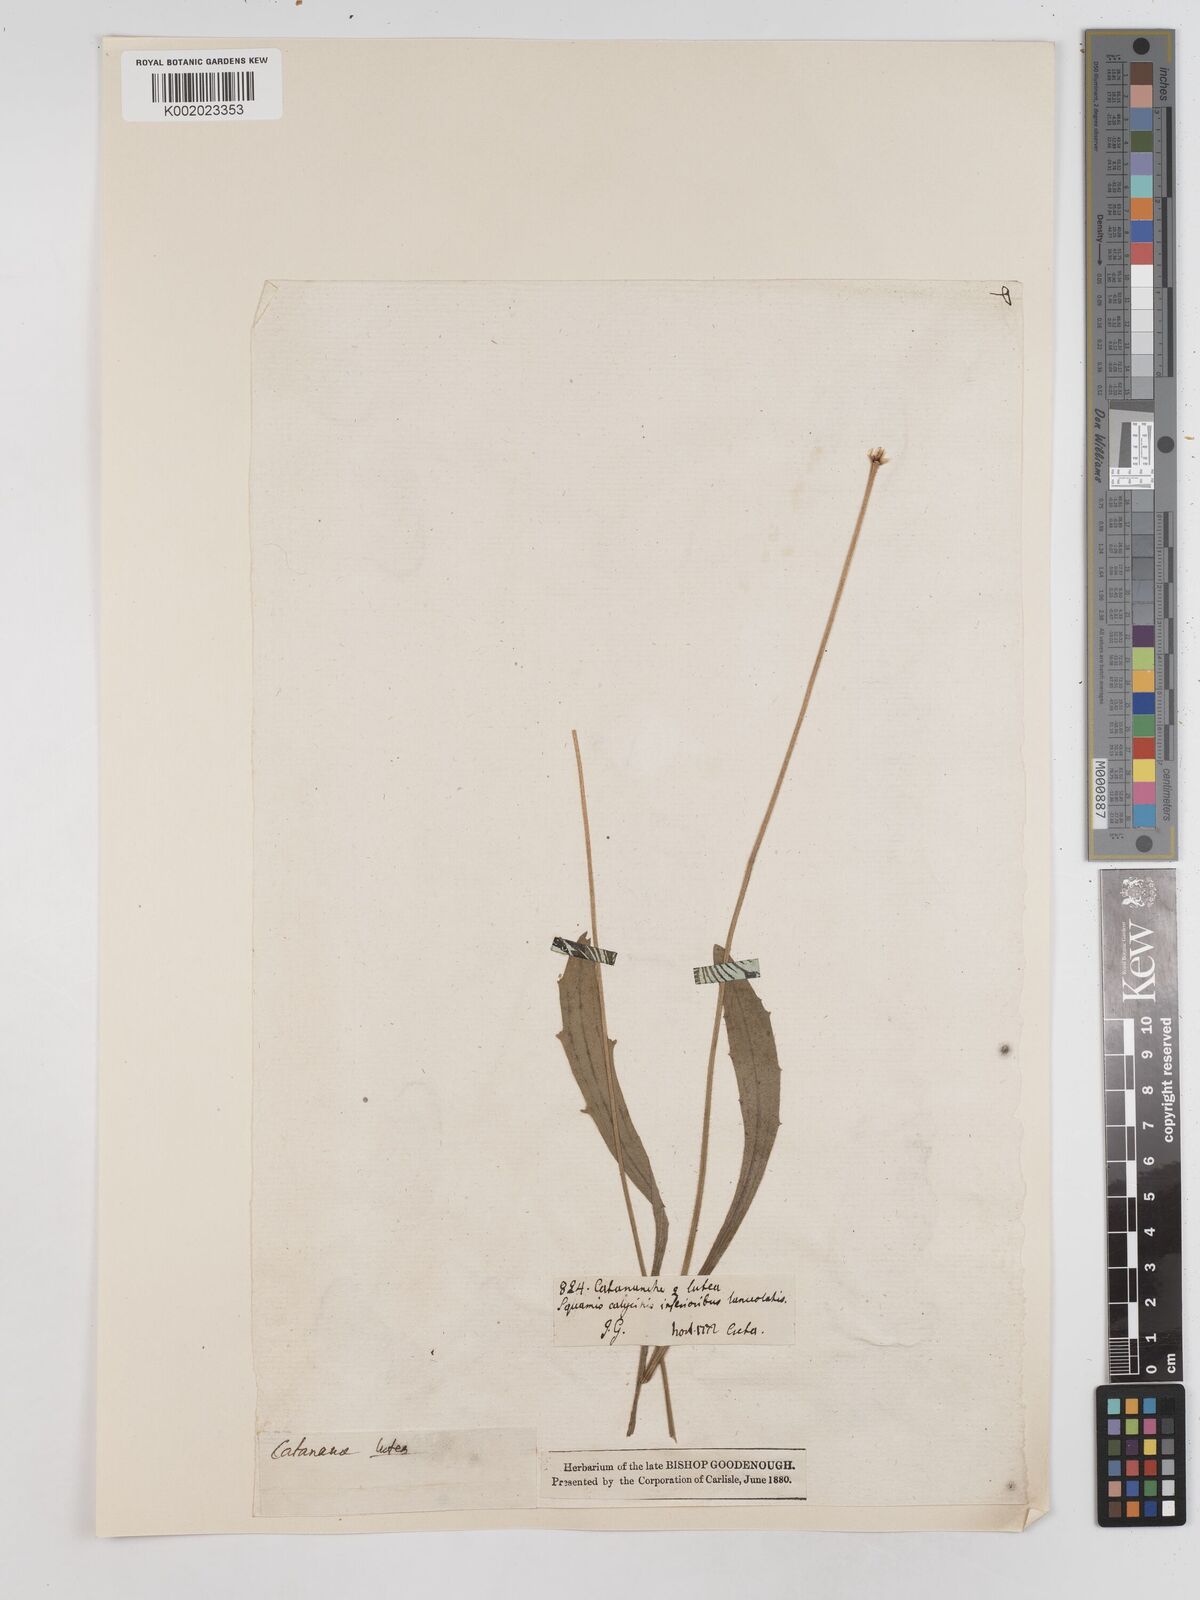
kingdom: Plantae
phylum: Tracheophyta
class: Magnoliopsida
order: Asterales
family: Asteraceae
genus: Catananche
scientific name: Catananche lutea
